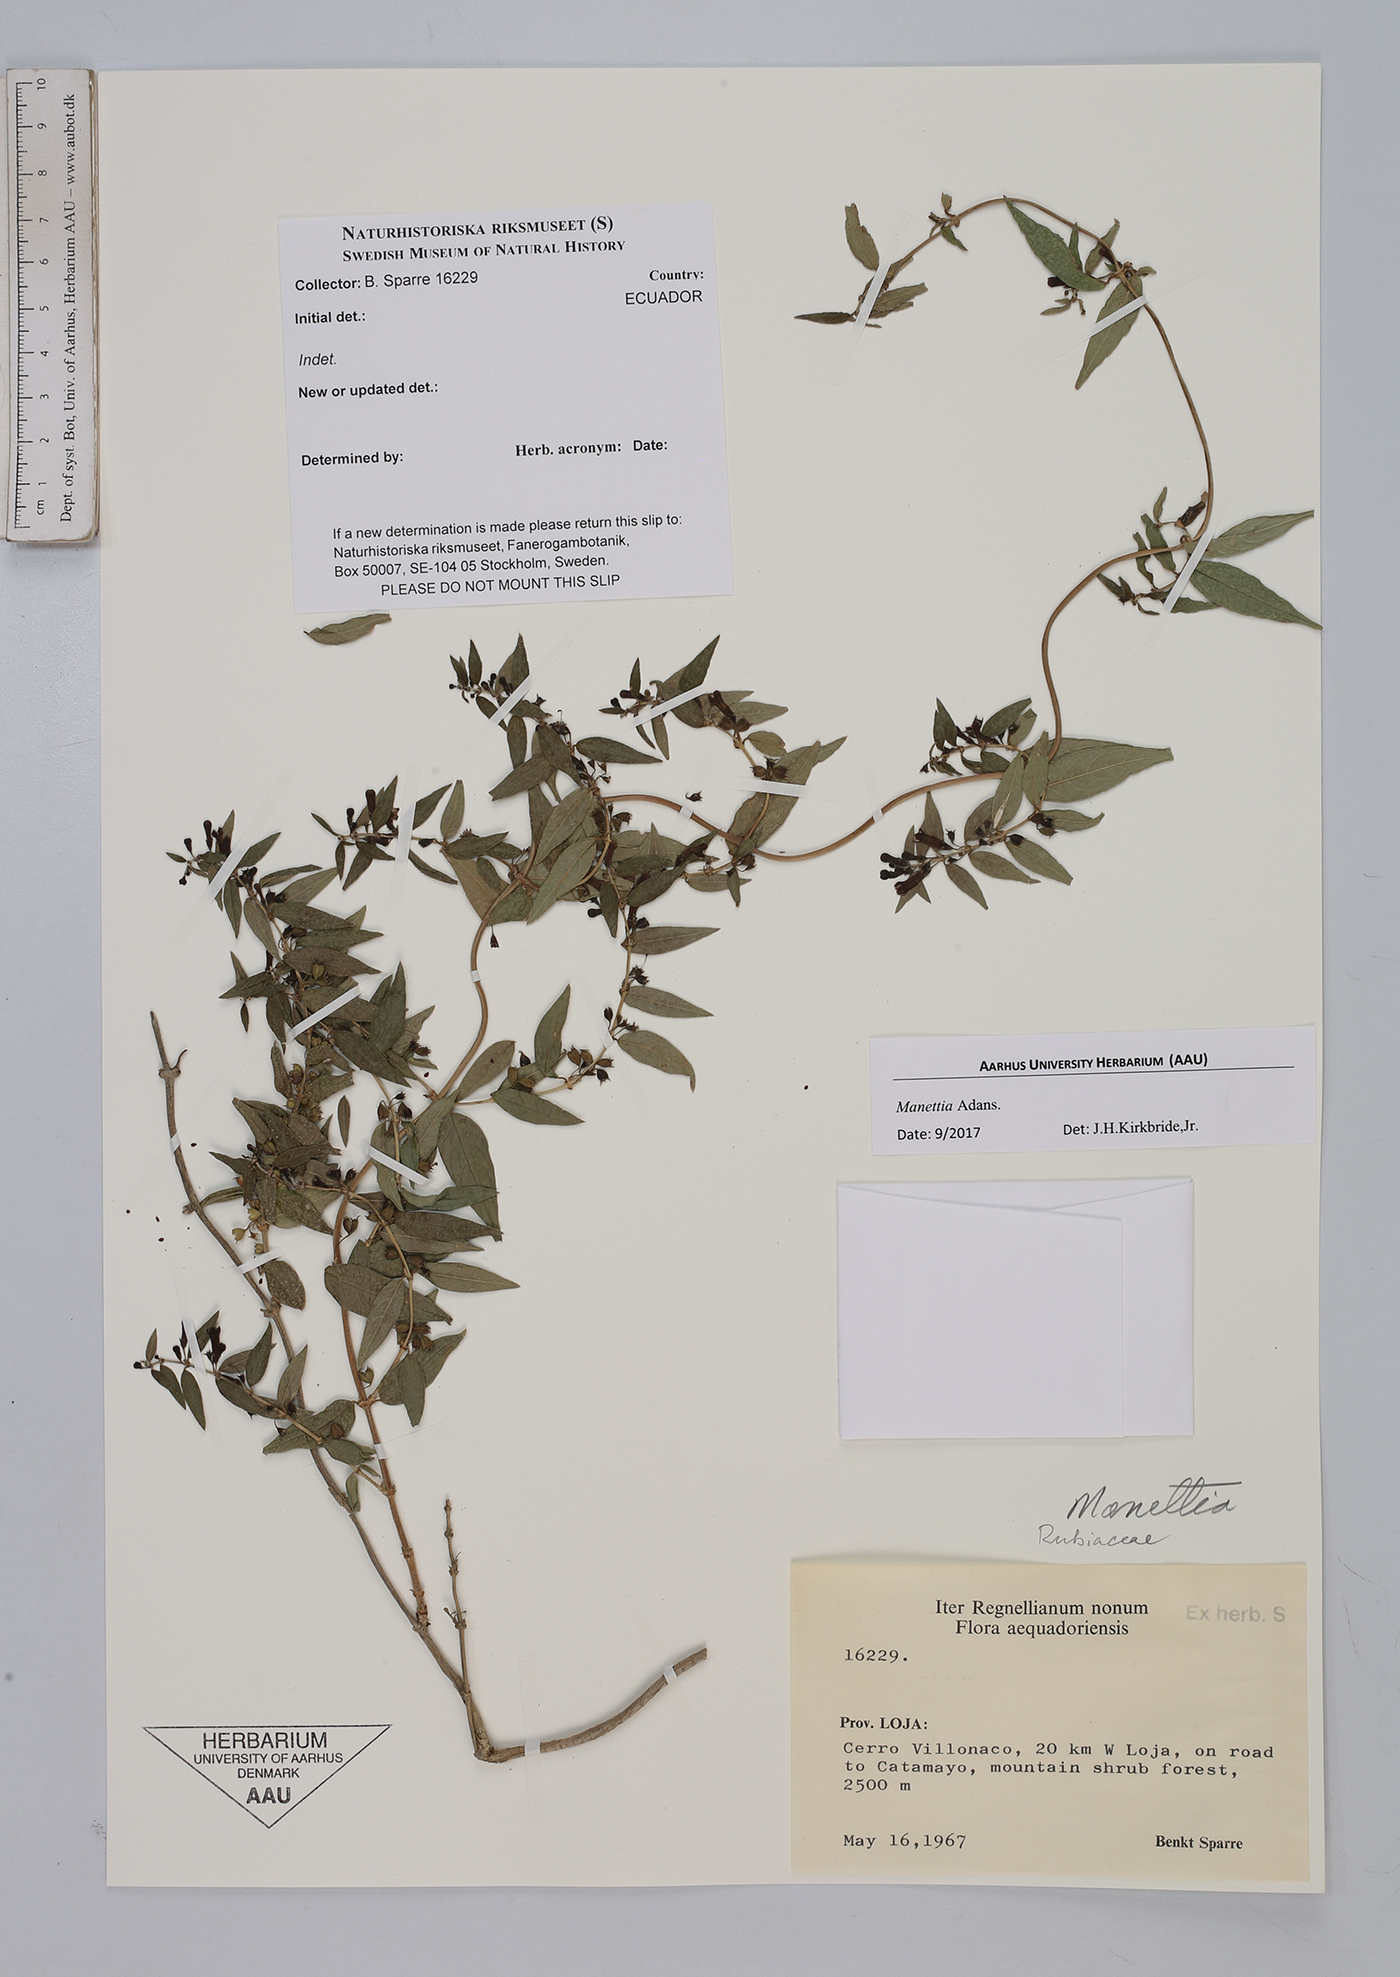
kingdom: Plantae
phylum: Tracheophyta
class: Magnoliopsida
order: Gentianales
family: Rubiaceae
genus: Manettia
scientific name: Manettia
